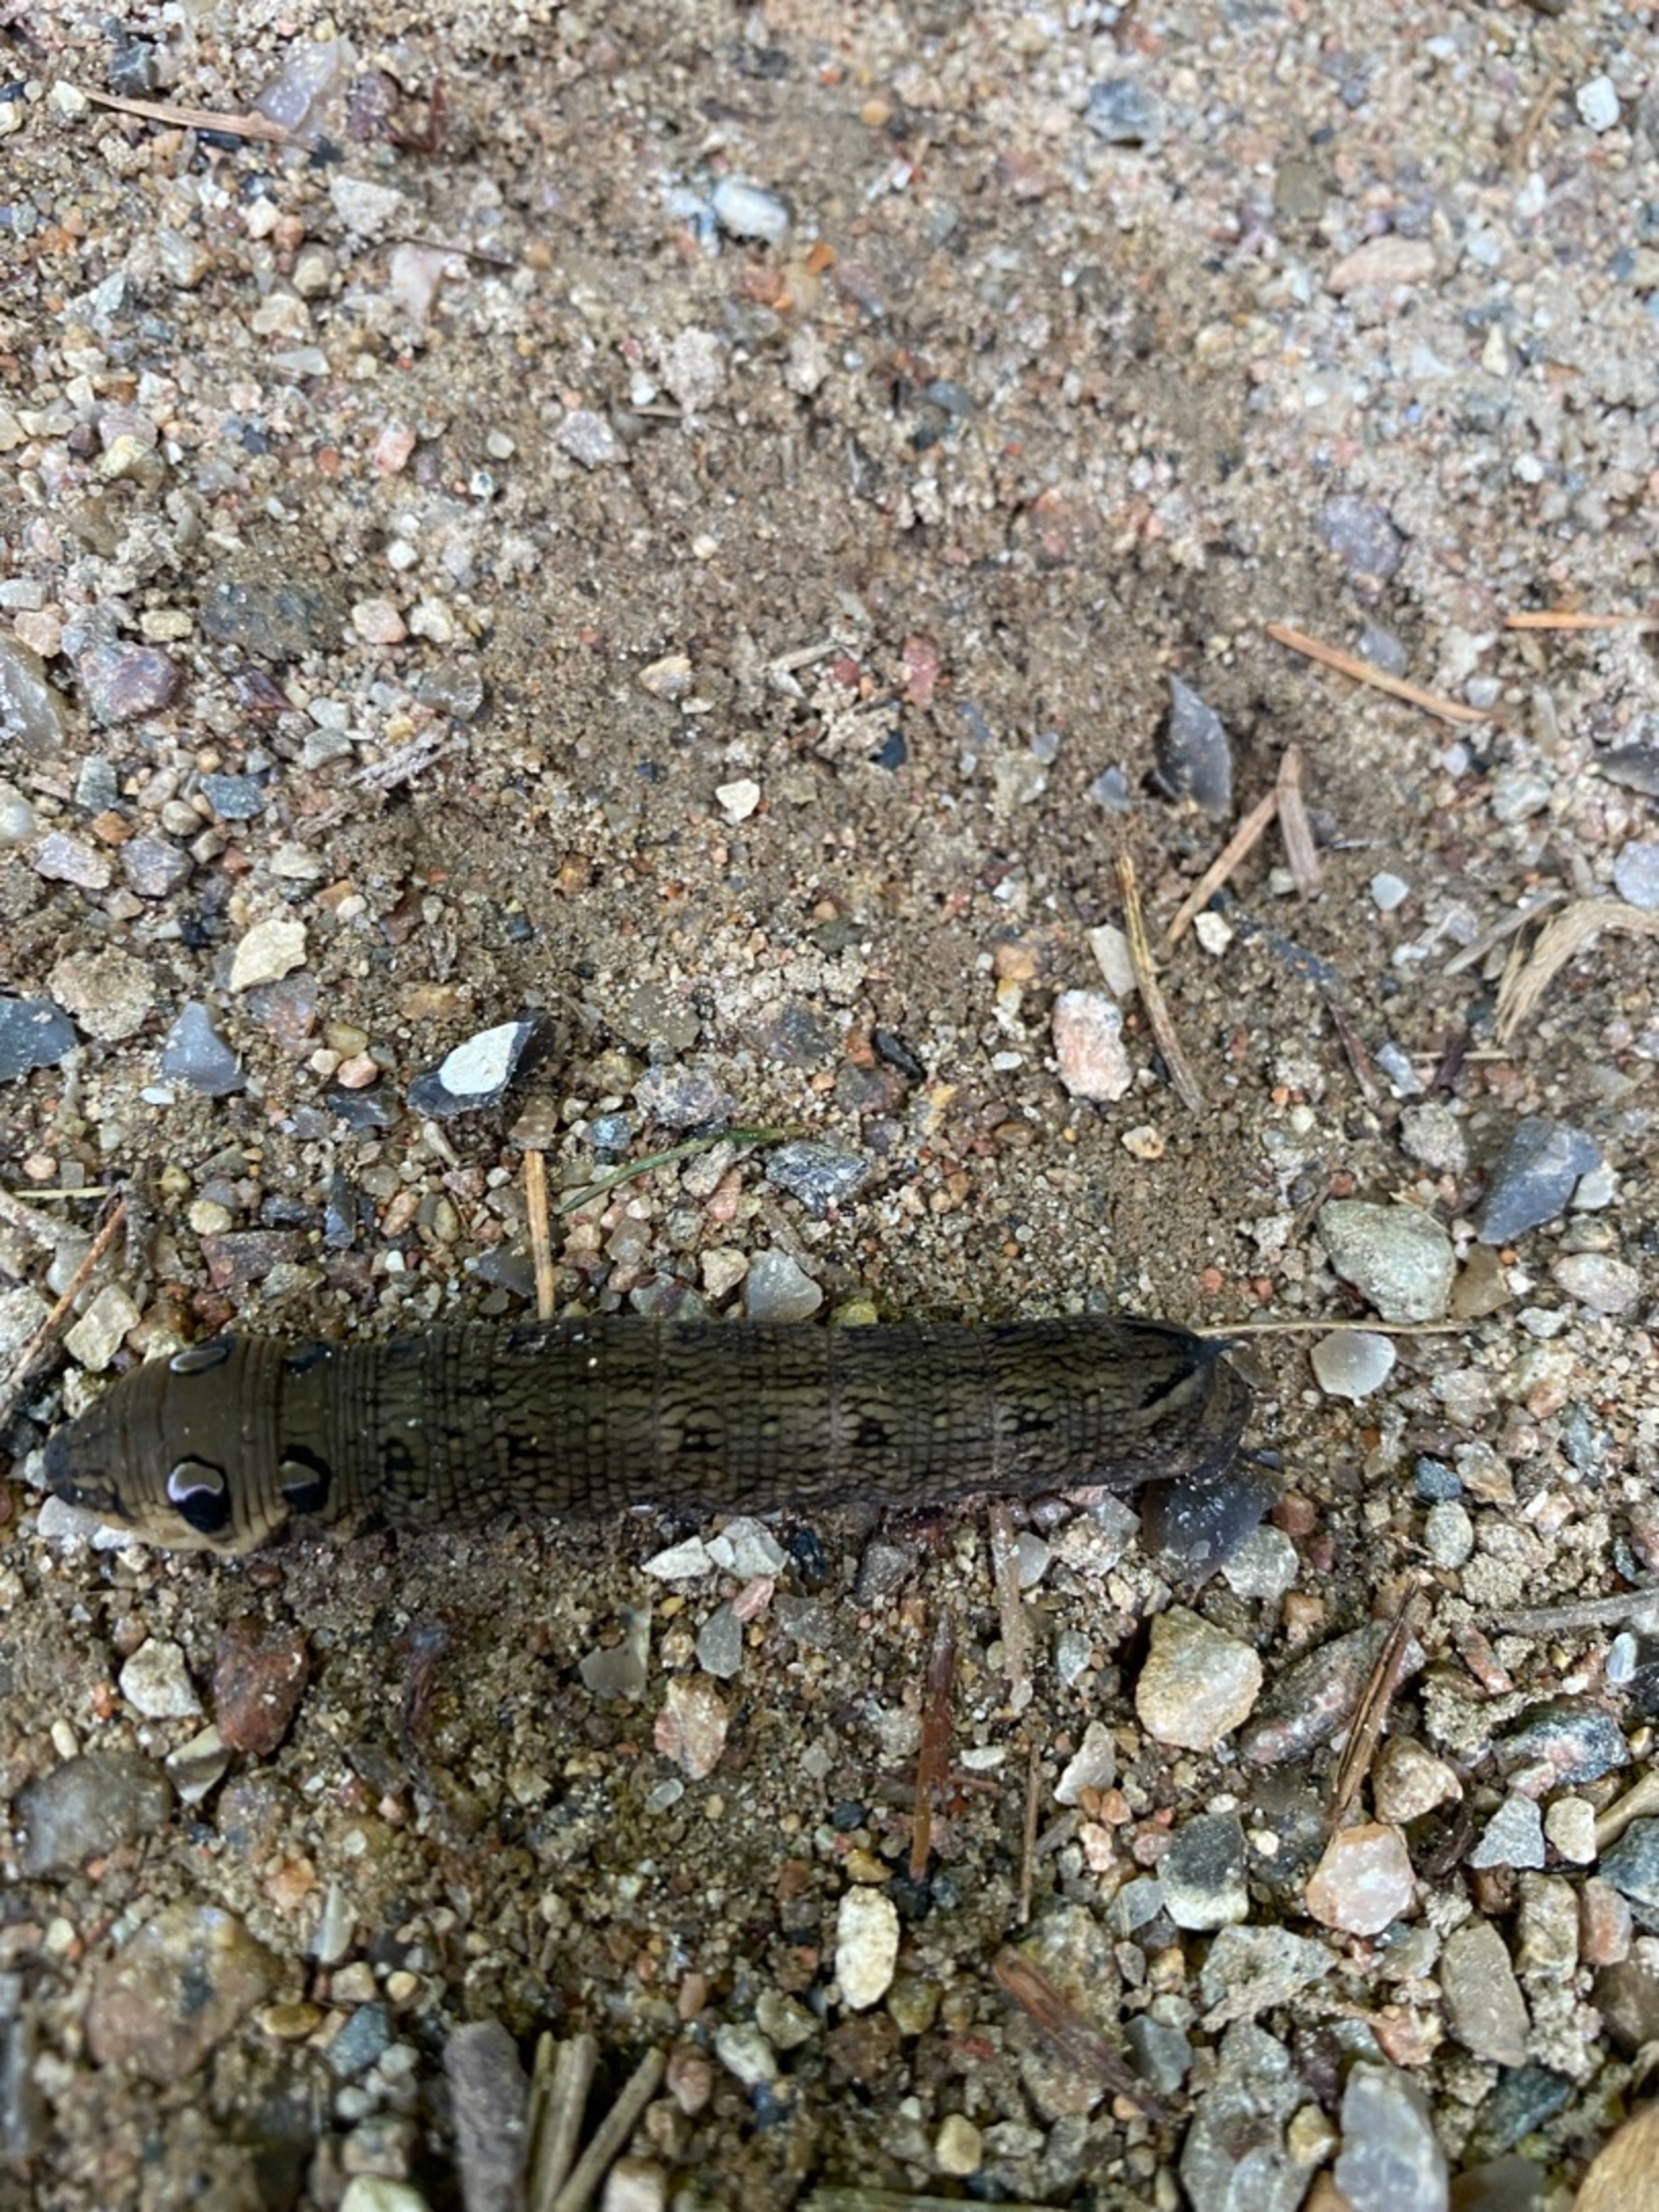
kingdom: Animalia
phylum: Arthropoda
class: Insecta
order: Lepidoptera
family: Sphingidae
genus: Deilephila
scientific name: Deilephila elpenor
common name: Dueurtsværmer
